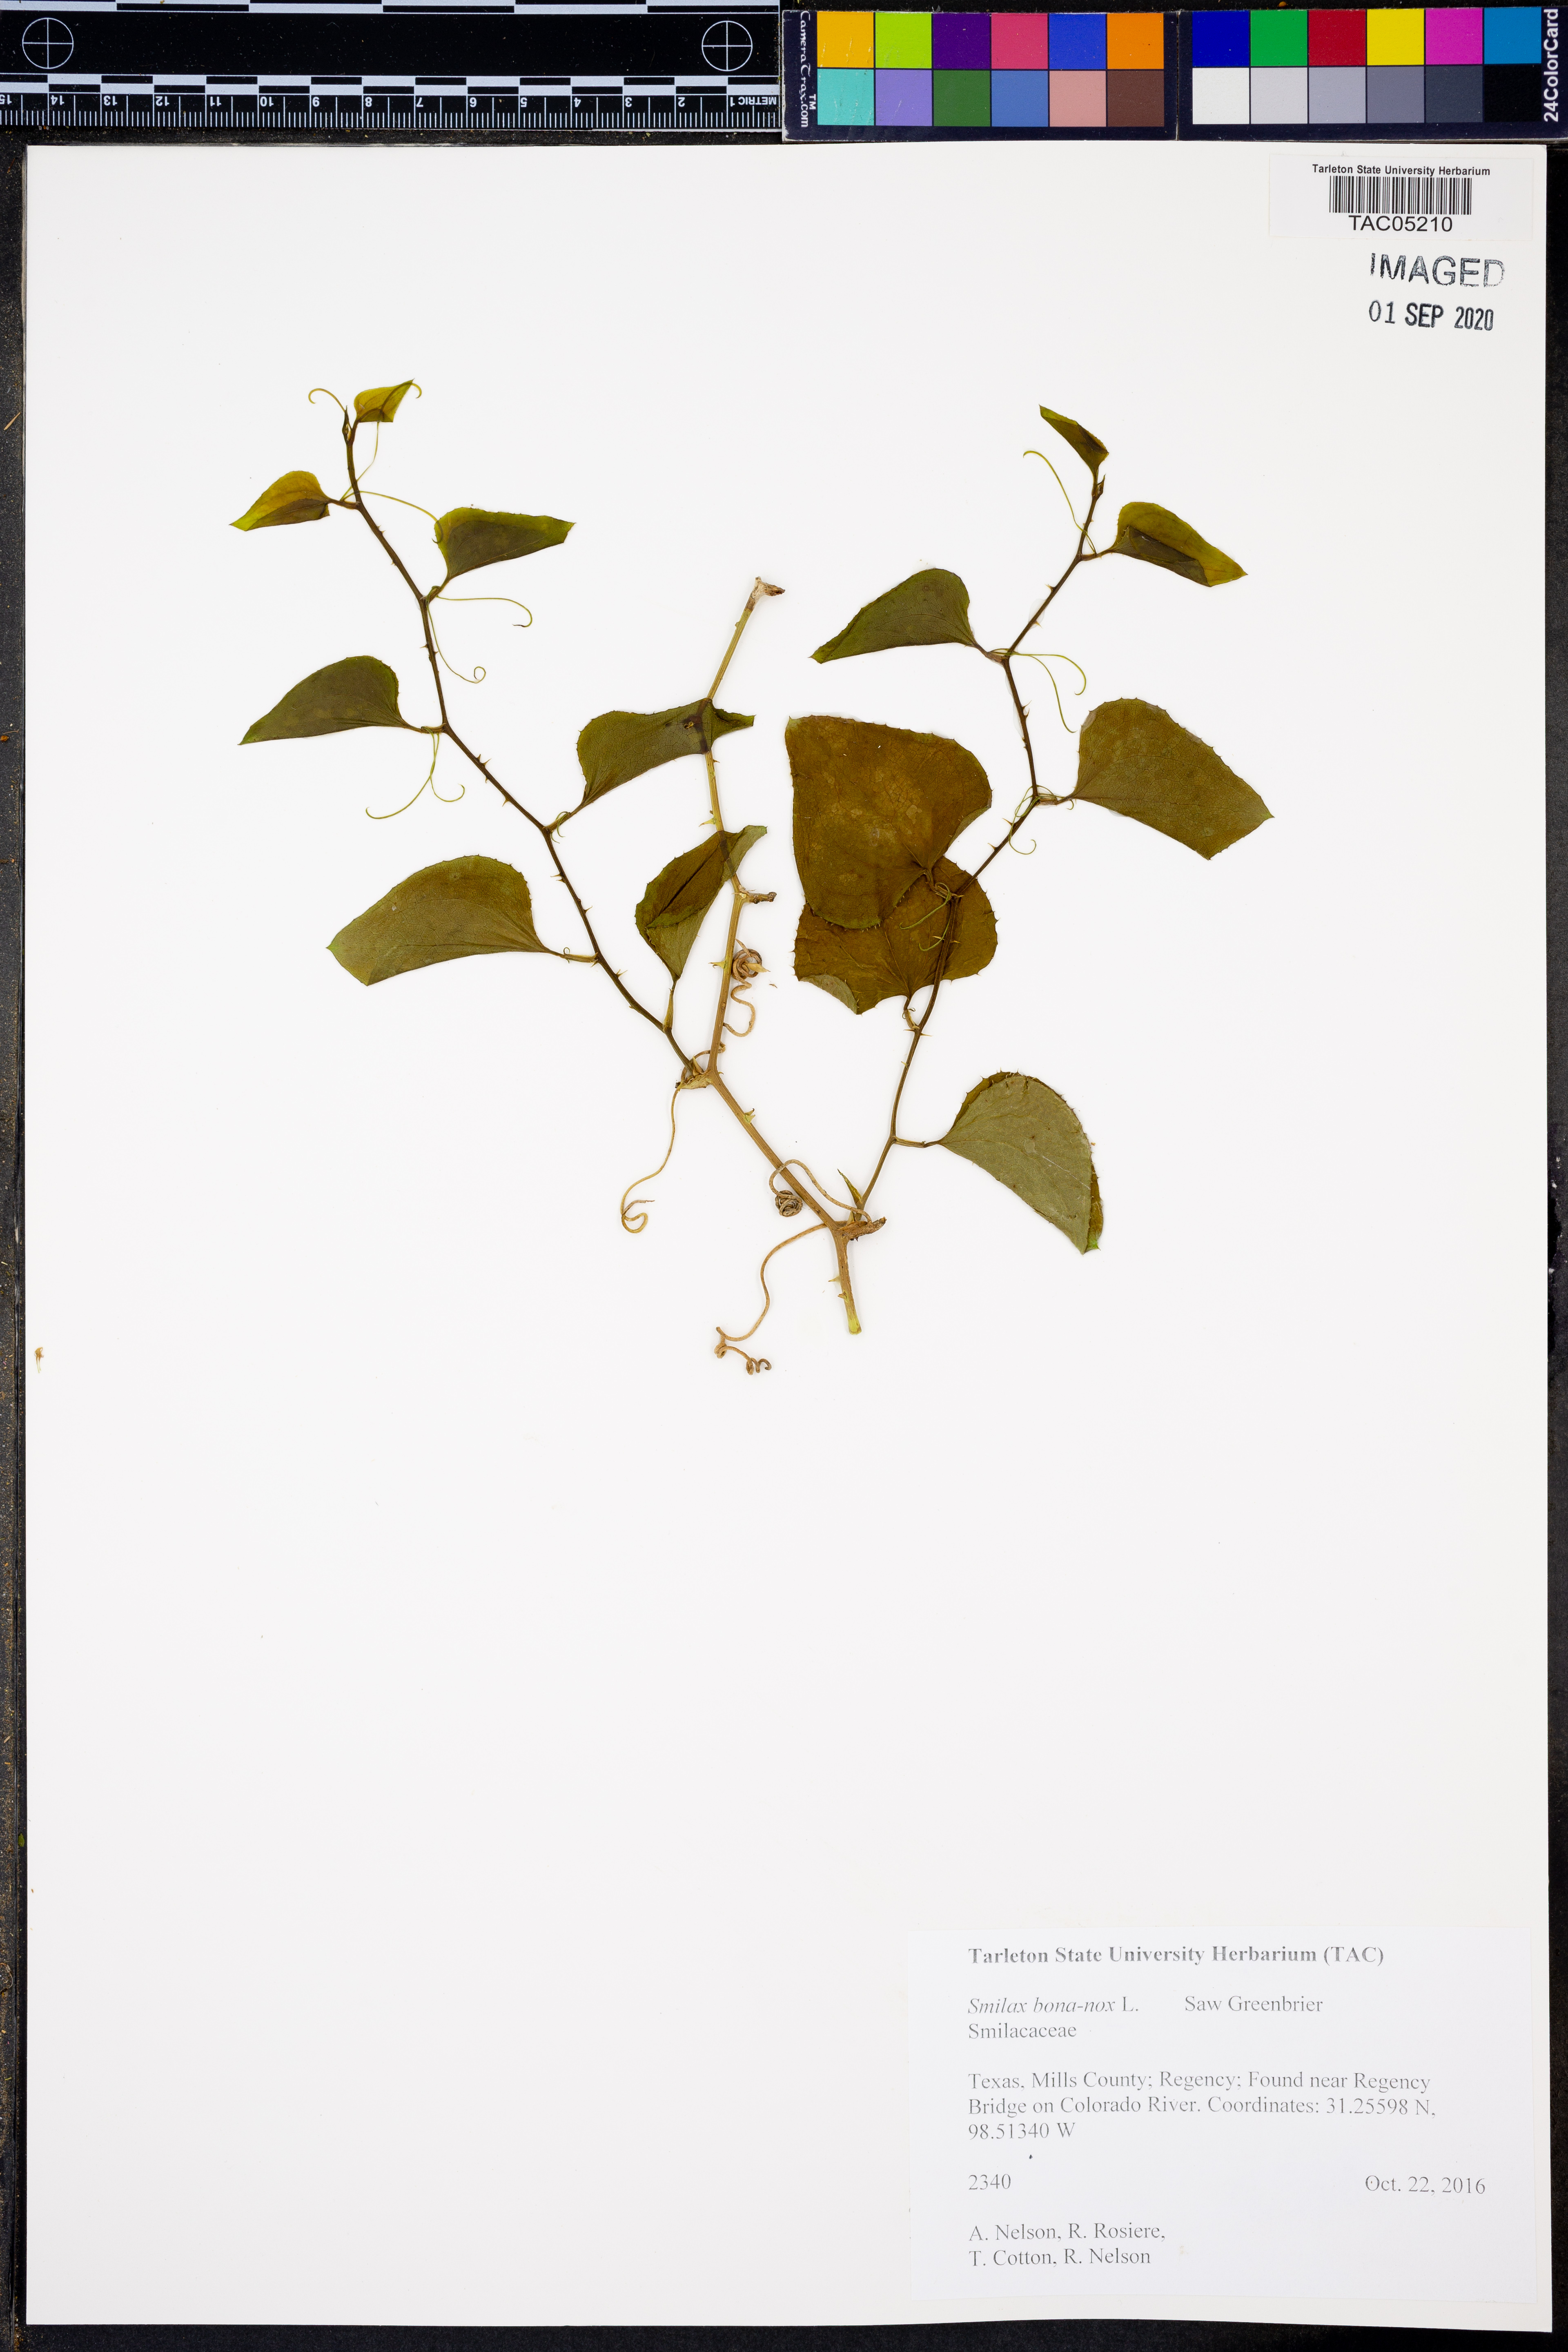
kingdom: Plantae
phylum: Tracheophyta
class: Liliopsida
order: Liliales
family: Smilacaceae
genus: Smilax
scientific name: Smilax bona-nox
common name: Catbrier
